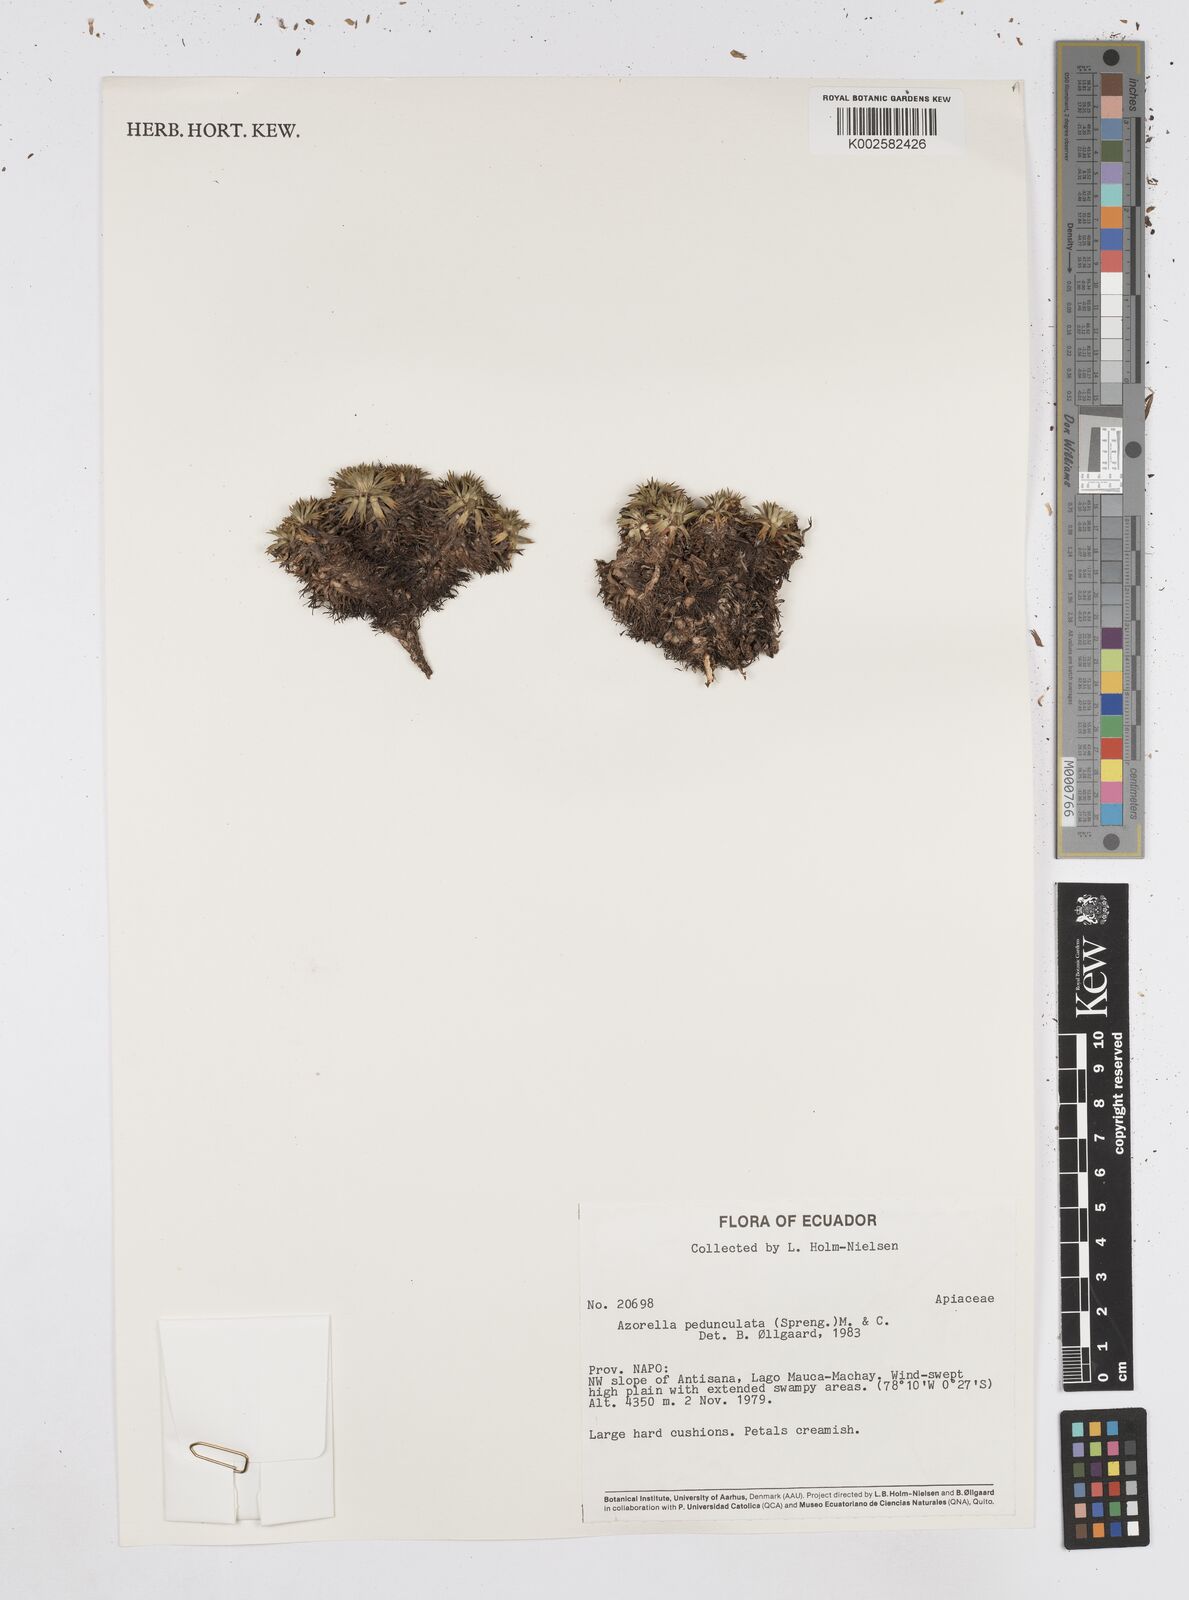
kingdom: Plantae
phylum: Tracheophyta
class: Magnoliopsida
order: Apiales
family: Apiaceae
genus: Azorella
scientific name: Azorella pedunculata
